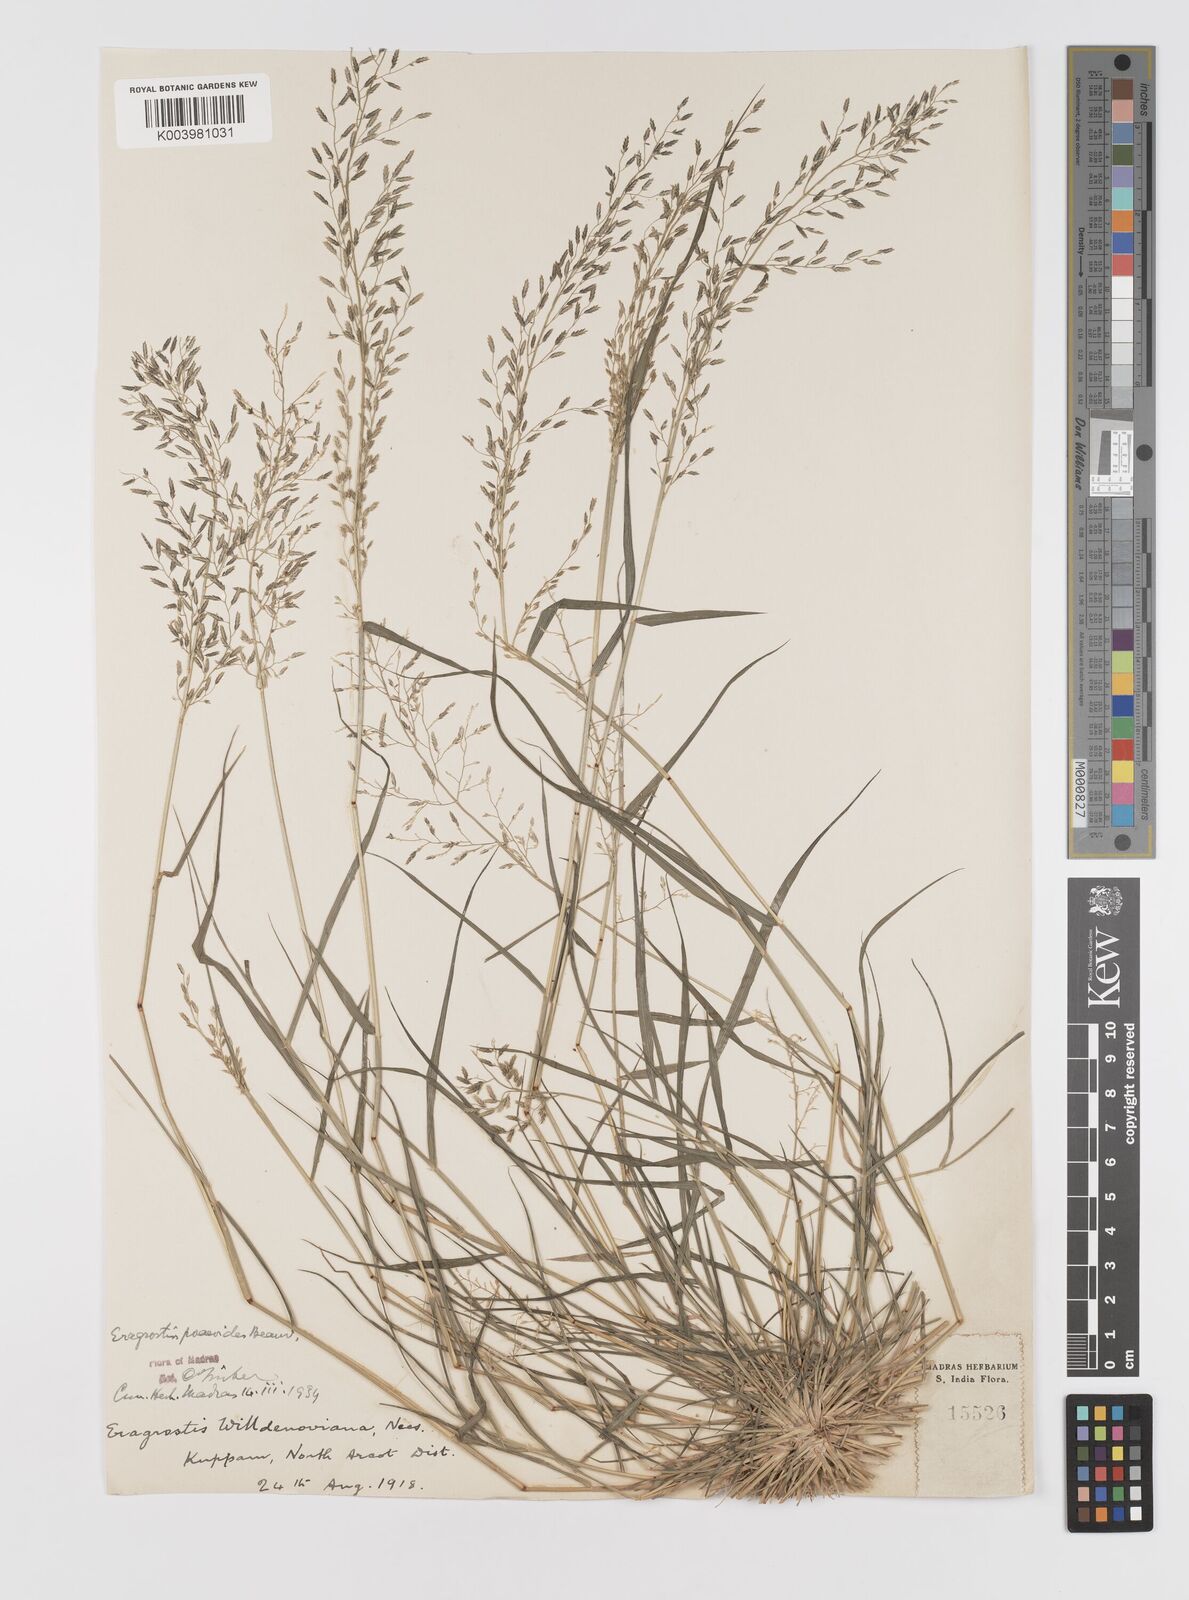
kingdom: Plantae
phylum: Tracheophyta
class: Liliopsida
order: Poales
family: Poaceae
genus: Eragrostis
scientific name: Eragrostis minor
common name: Small love-grass
